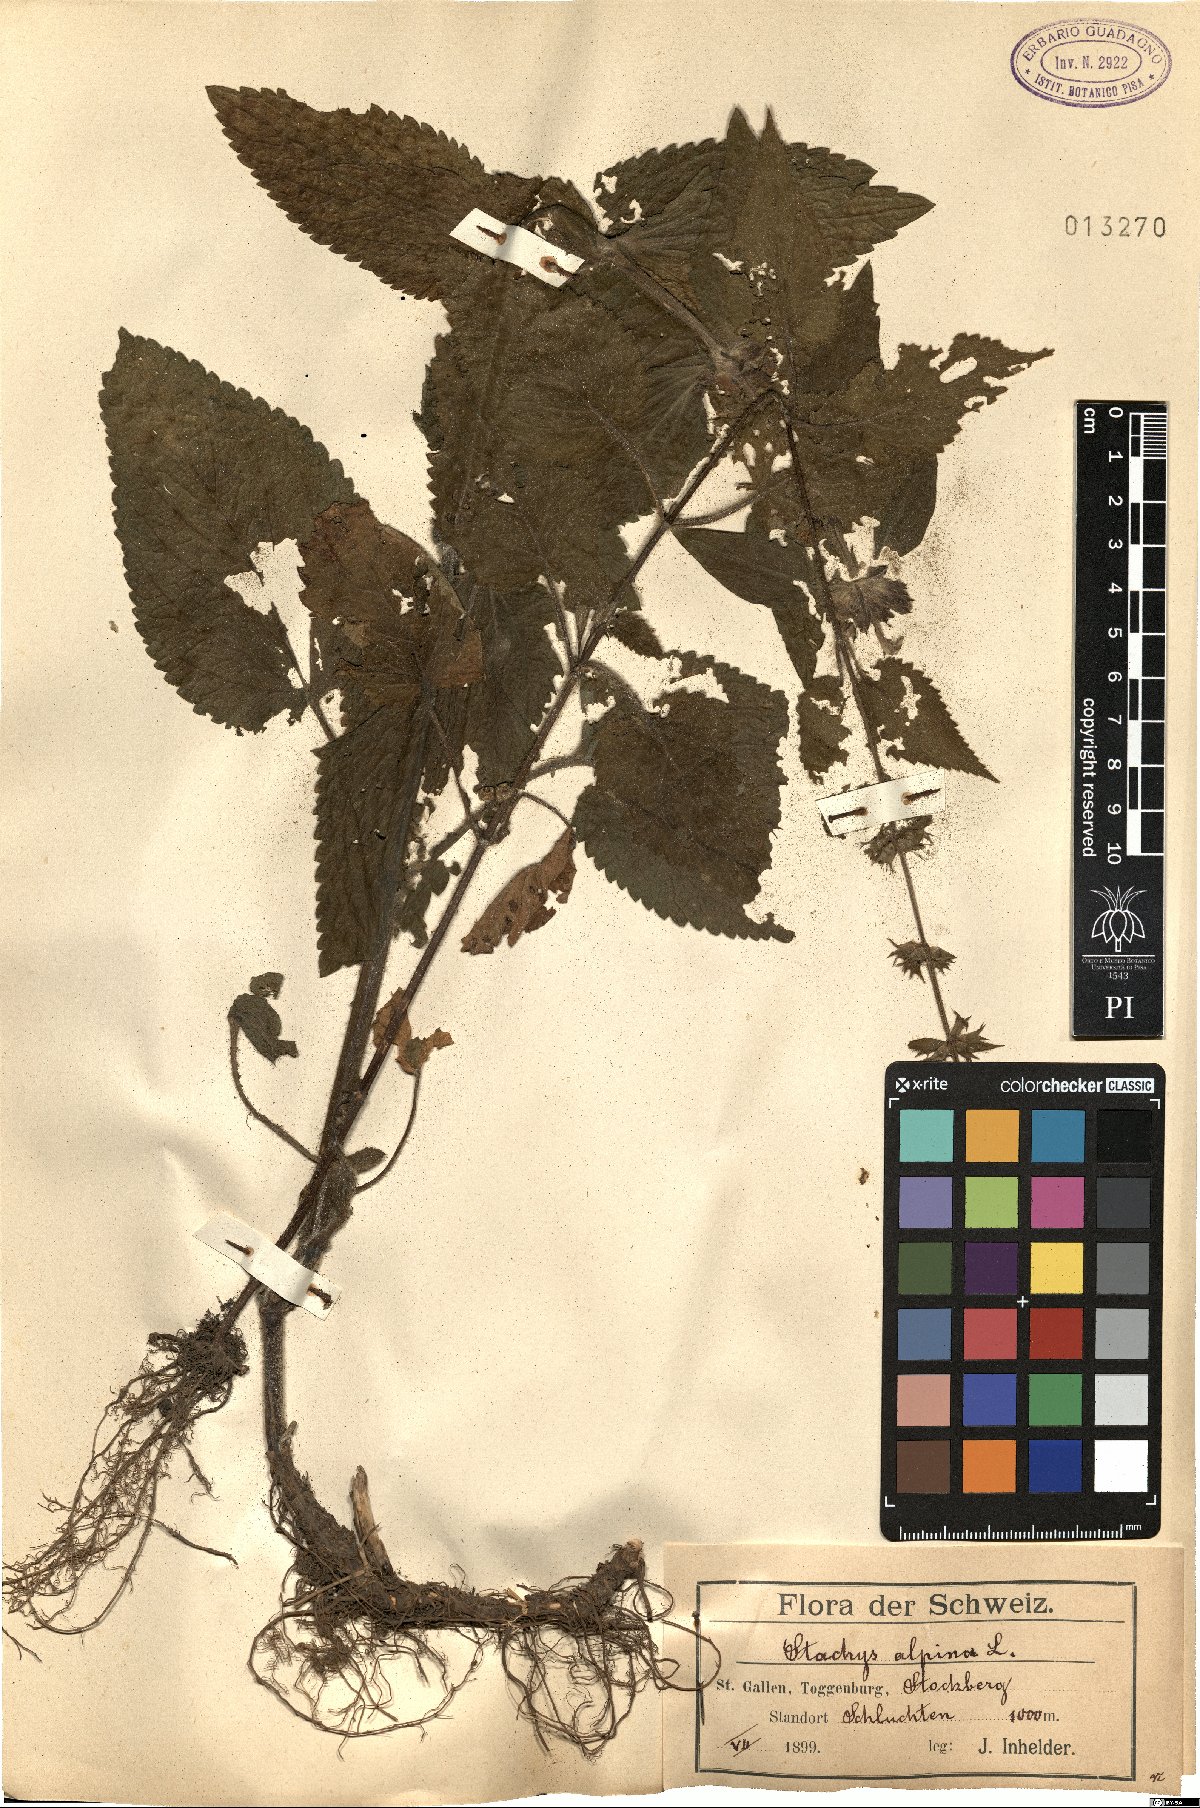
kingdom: Plantae
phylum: Tracheophyta
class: Magnoliopsida
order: Lamiales
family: Lamiaceae
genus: Stachys
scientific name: Stachys alpina
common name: Limestone woundwort
